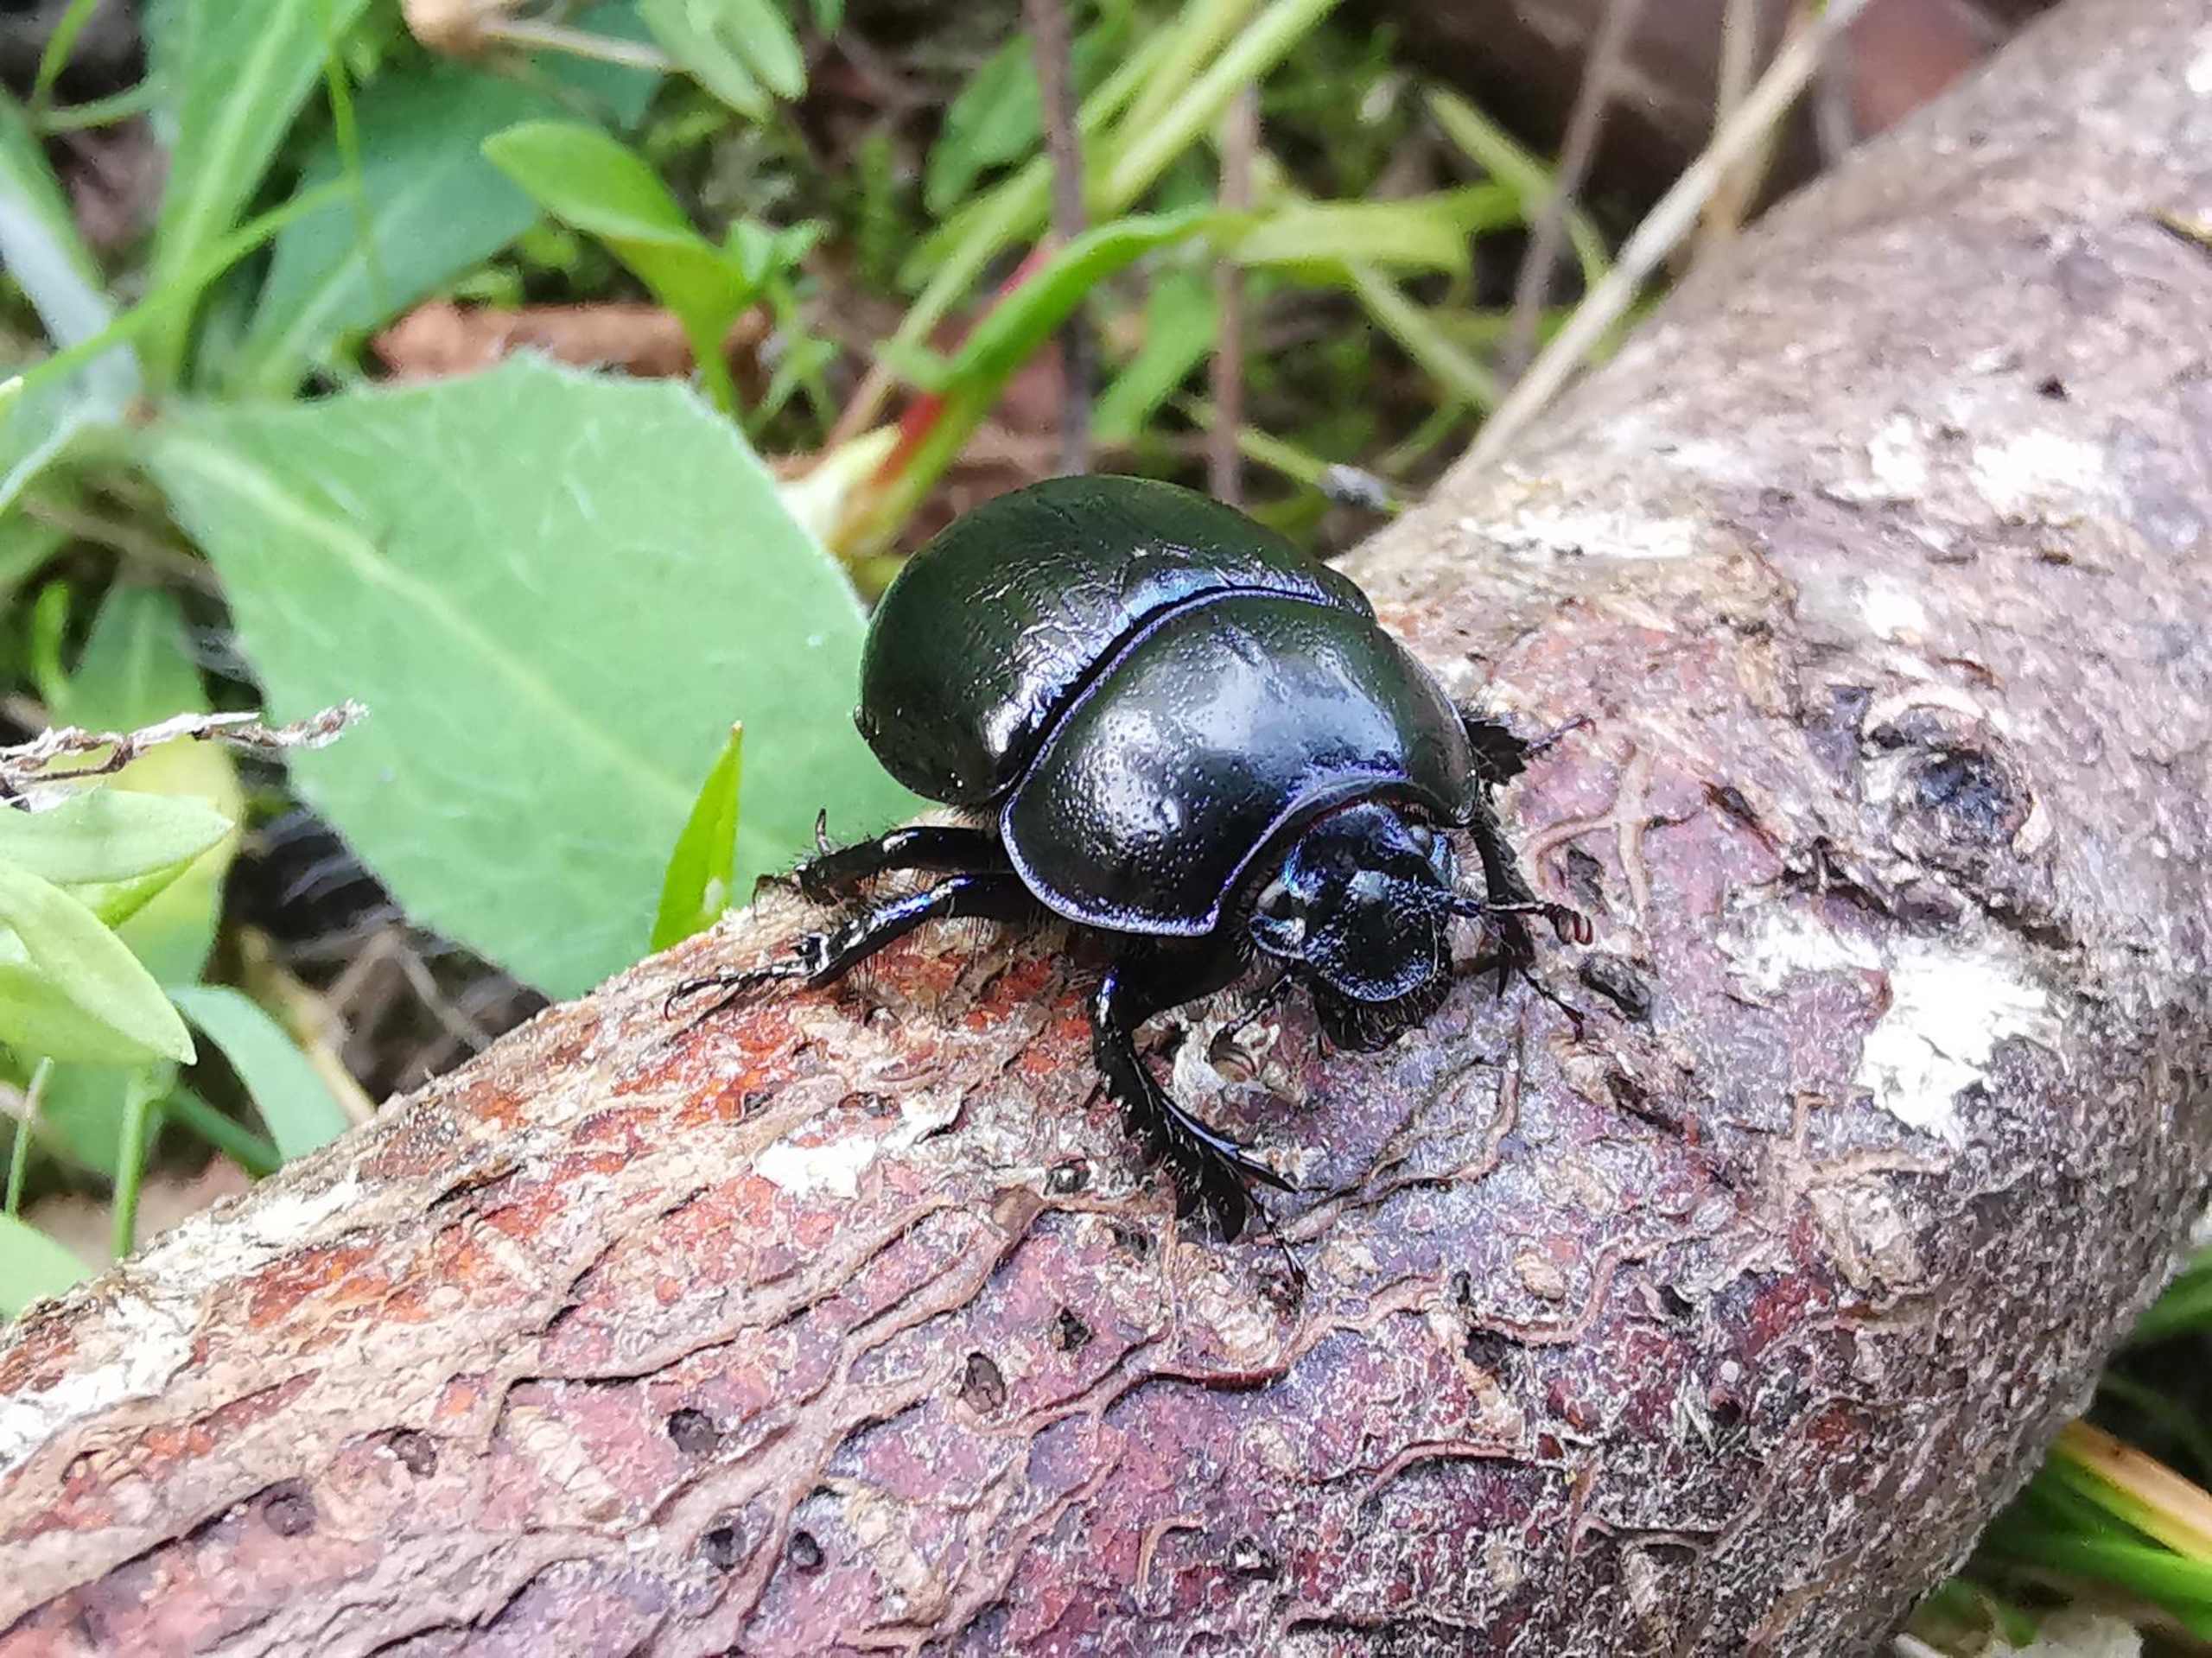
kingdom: Animalia
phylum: Arthropoda
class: Insecta
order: Coleoptera
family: Geotrupidae
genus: Anoplotrupes
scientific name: Anoplotrupes stercorosus
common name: Skovskarnbasse
